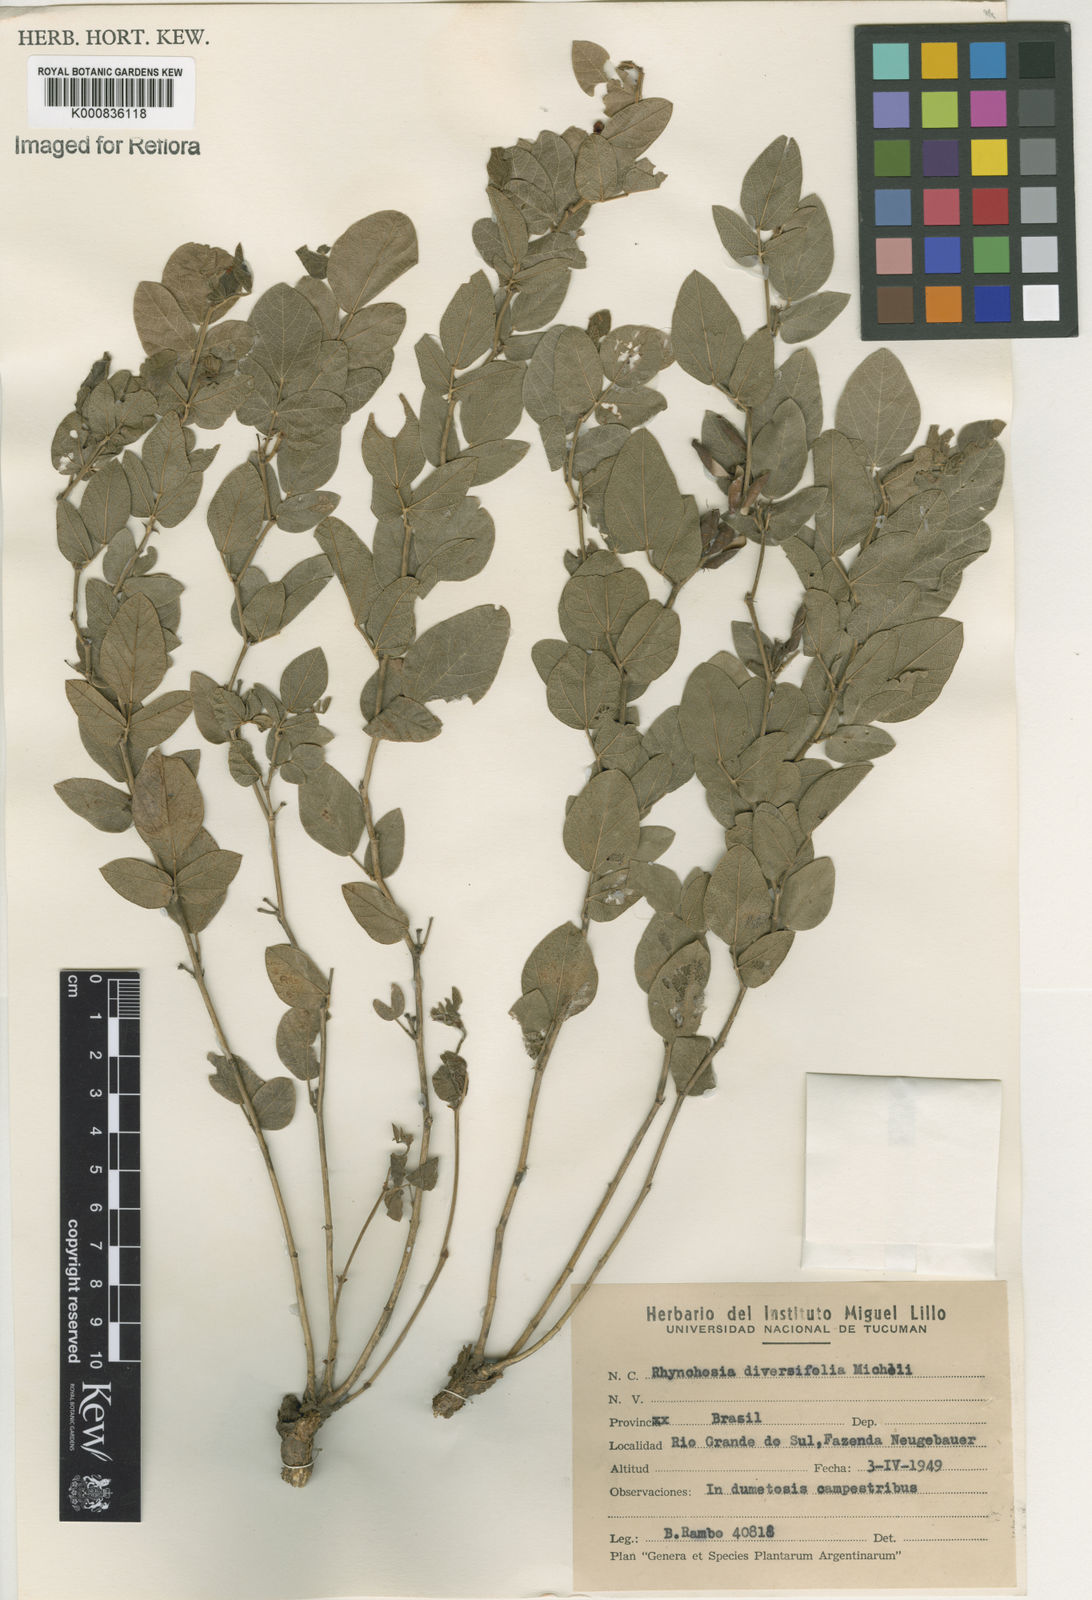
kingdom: Plantae
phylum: Tracheophyta
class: Magnoliopsida
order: Fabales
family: Fabaceae
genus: Rhynchosia
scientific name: Rhynchosia diversifolia
